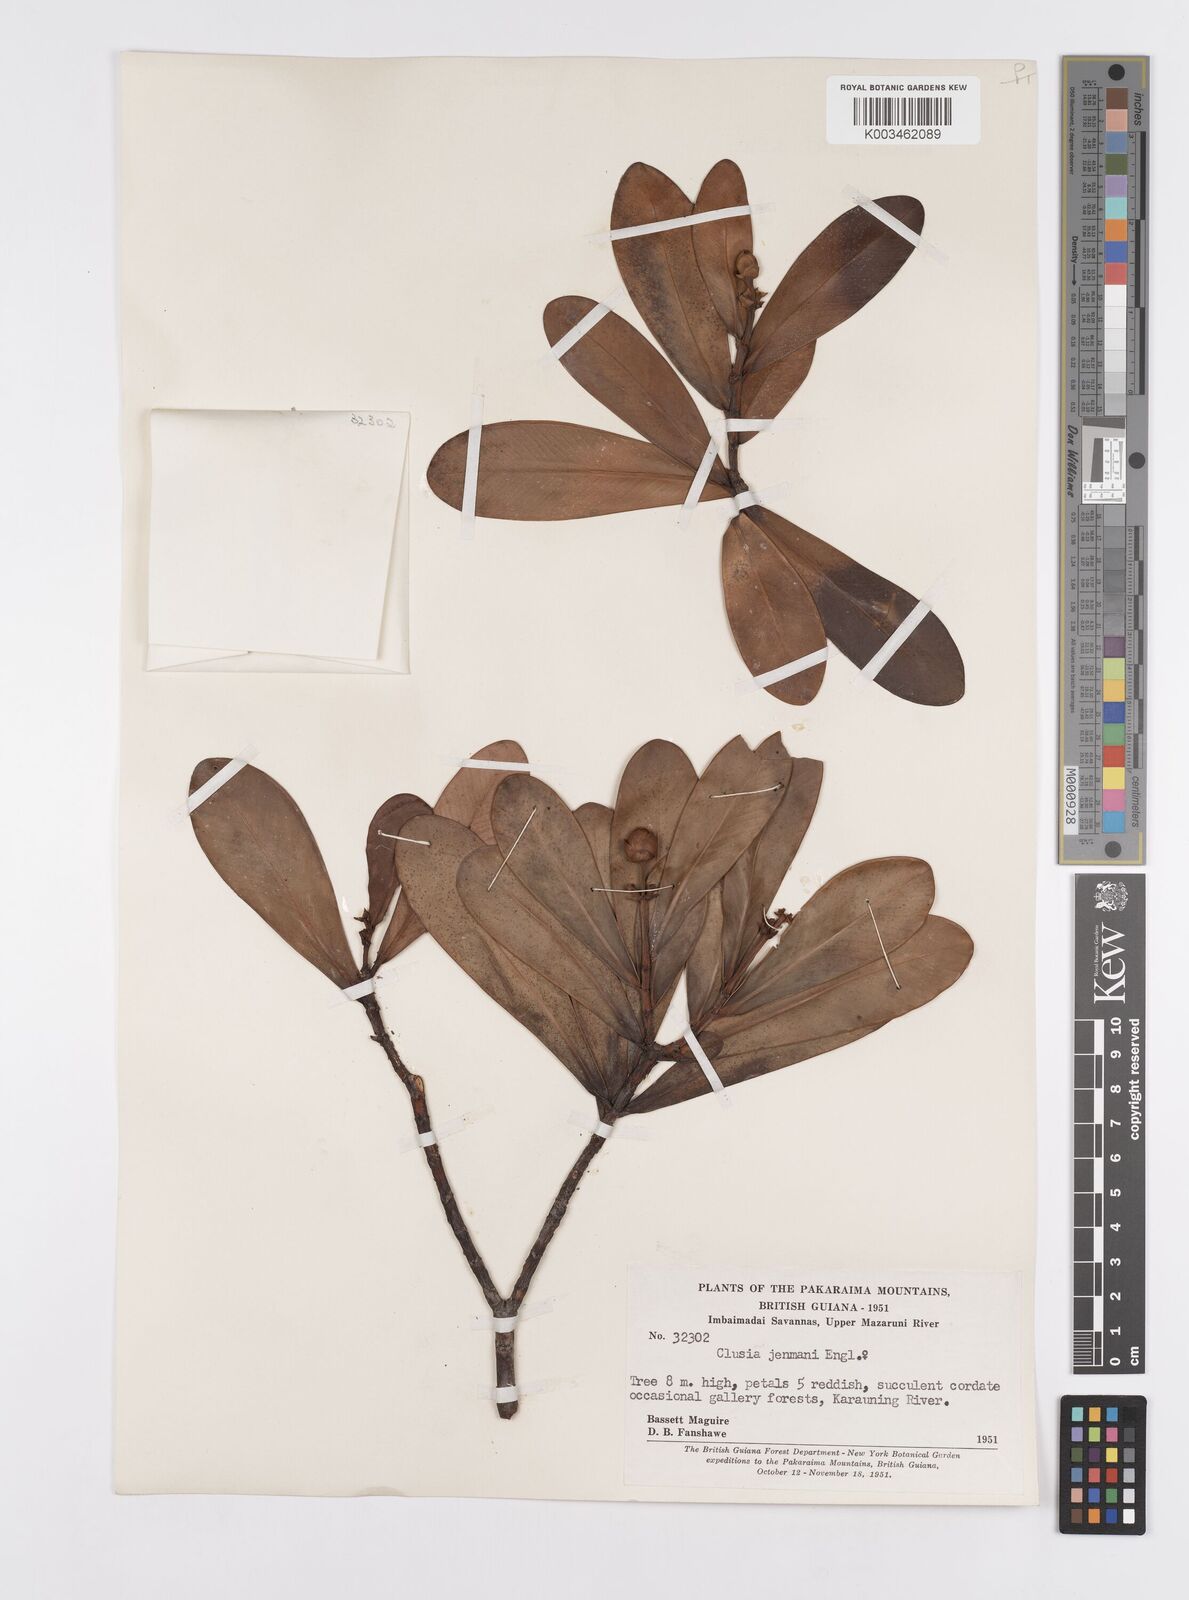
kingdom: Plantae
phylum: Tracheophyta
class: Magnoliopsida
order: Malpighiales
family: Clusiaceae
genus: Clusia
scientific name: Clusia myriandra
